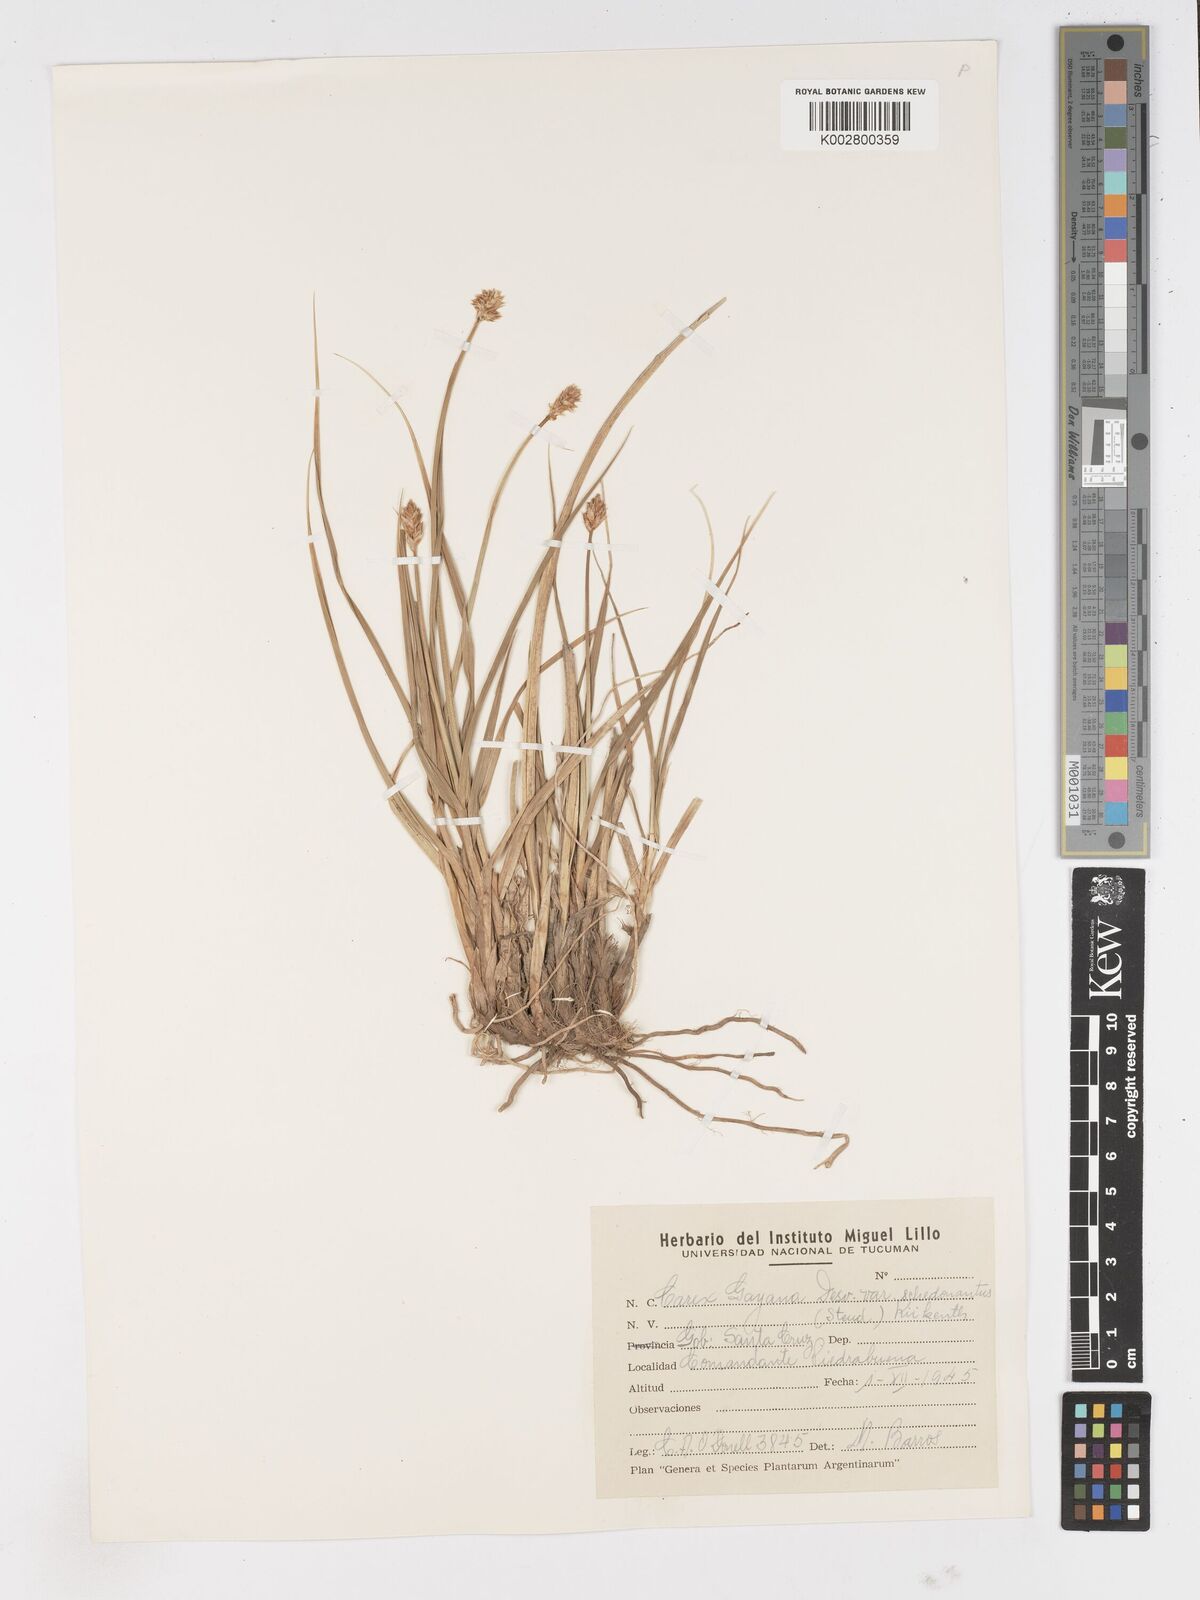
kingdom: Plantae
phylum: Tracheophyta
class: Liliopsida
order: Poales
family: Cyperaceae
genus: Carex
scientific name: Carex gayana
